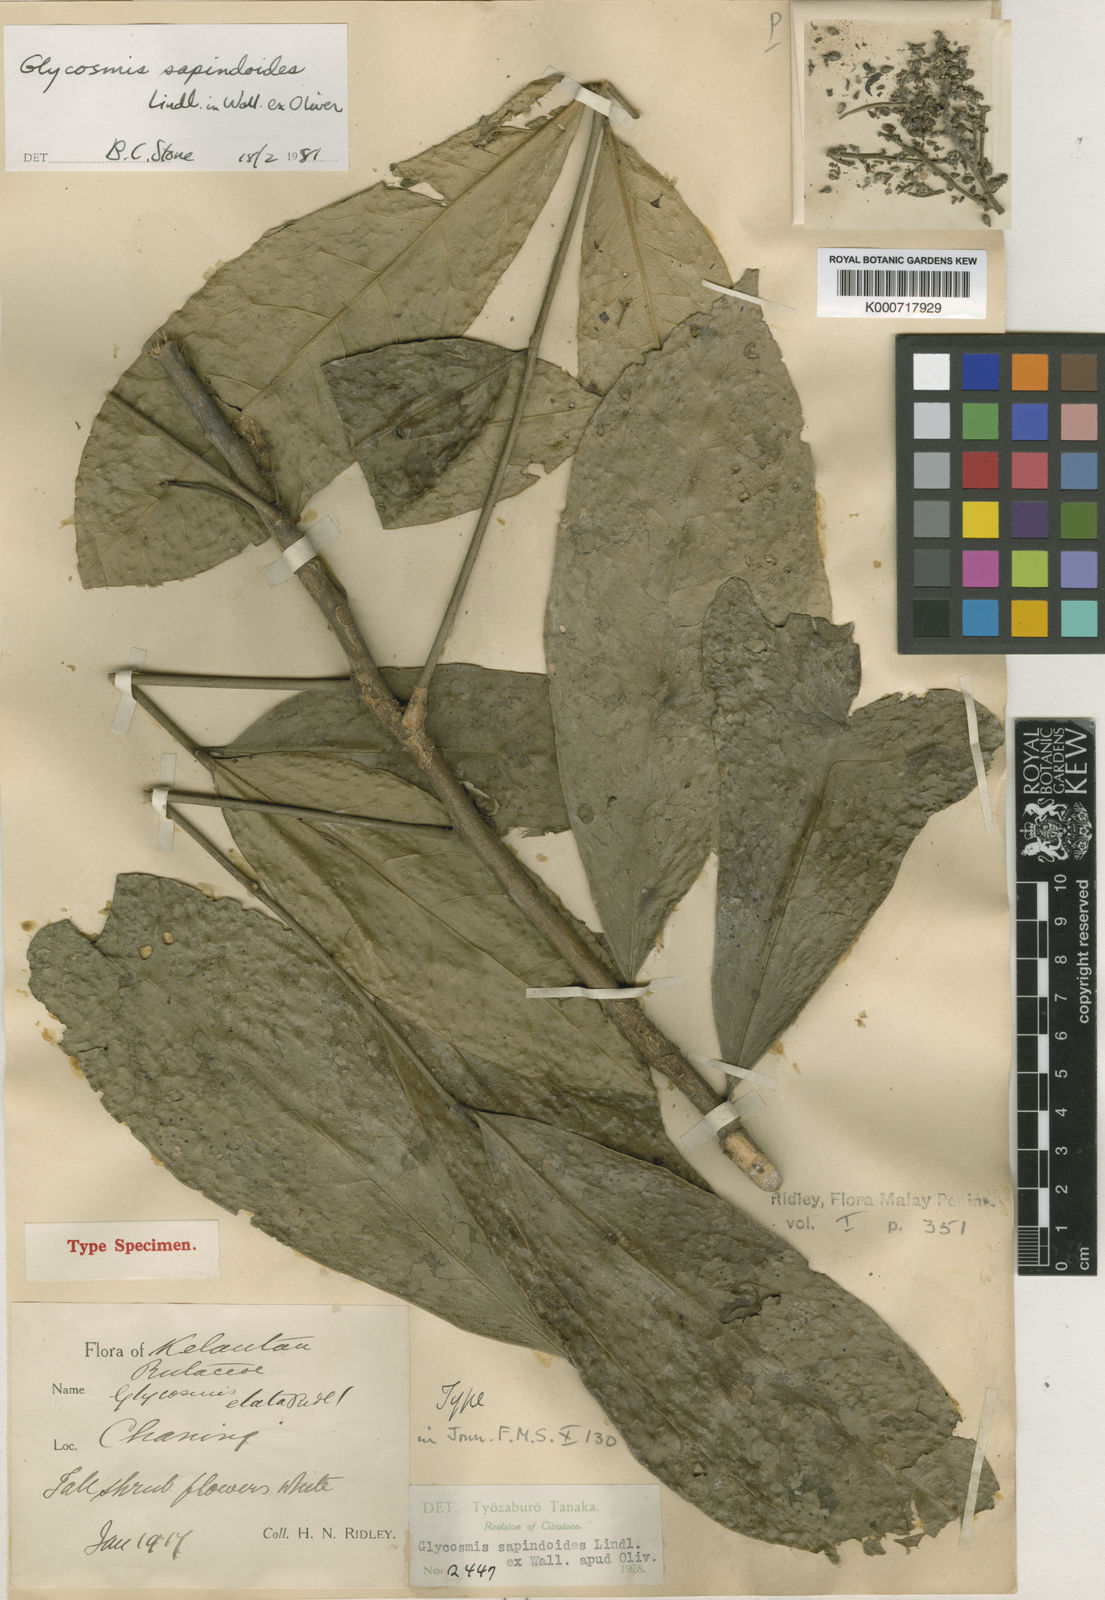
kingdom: Plantae
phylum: Tracheophyta
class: Magnoliopsida
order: Sapindales
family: Rutaceae
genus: Glycosmis
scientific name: Glycosmis macrophylla
